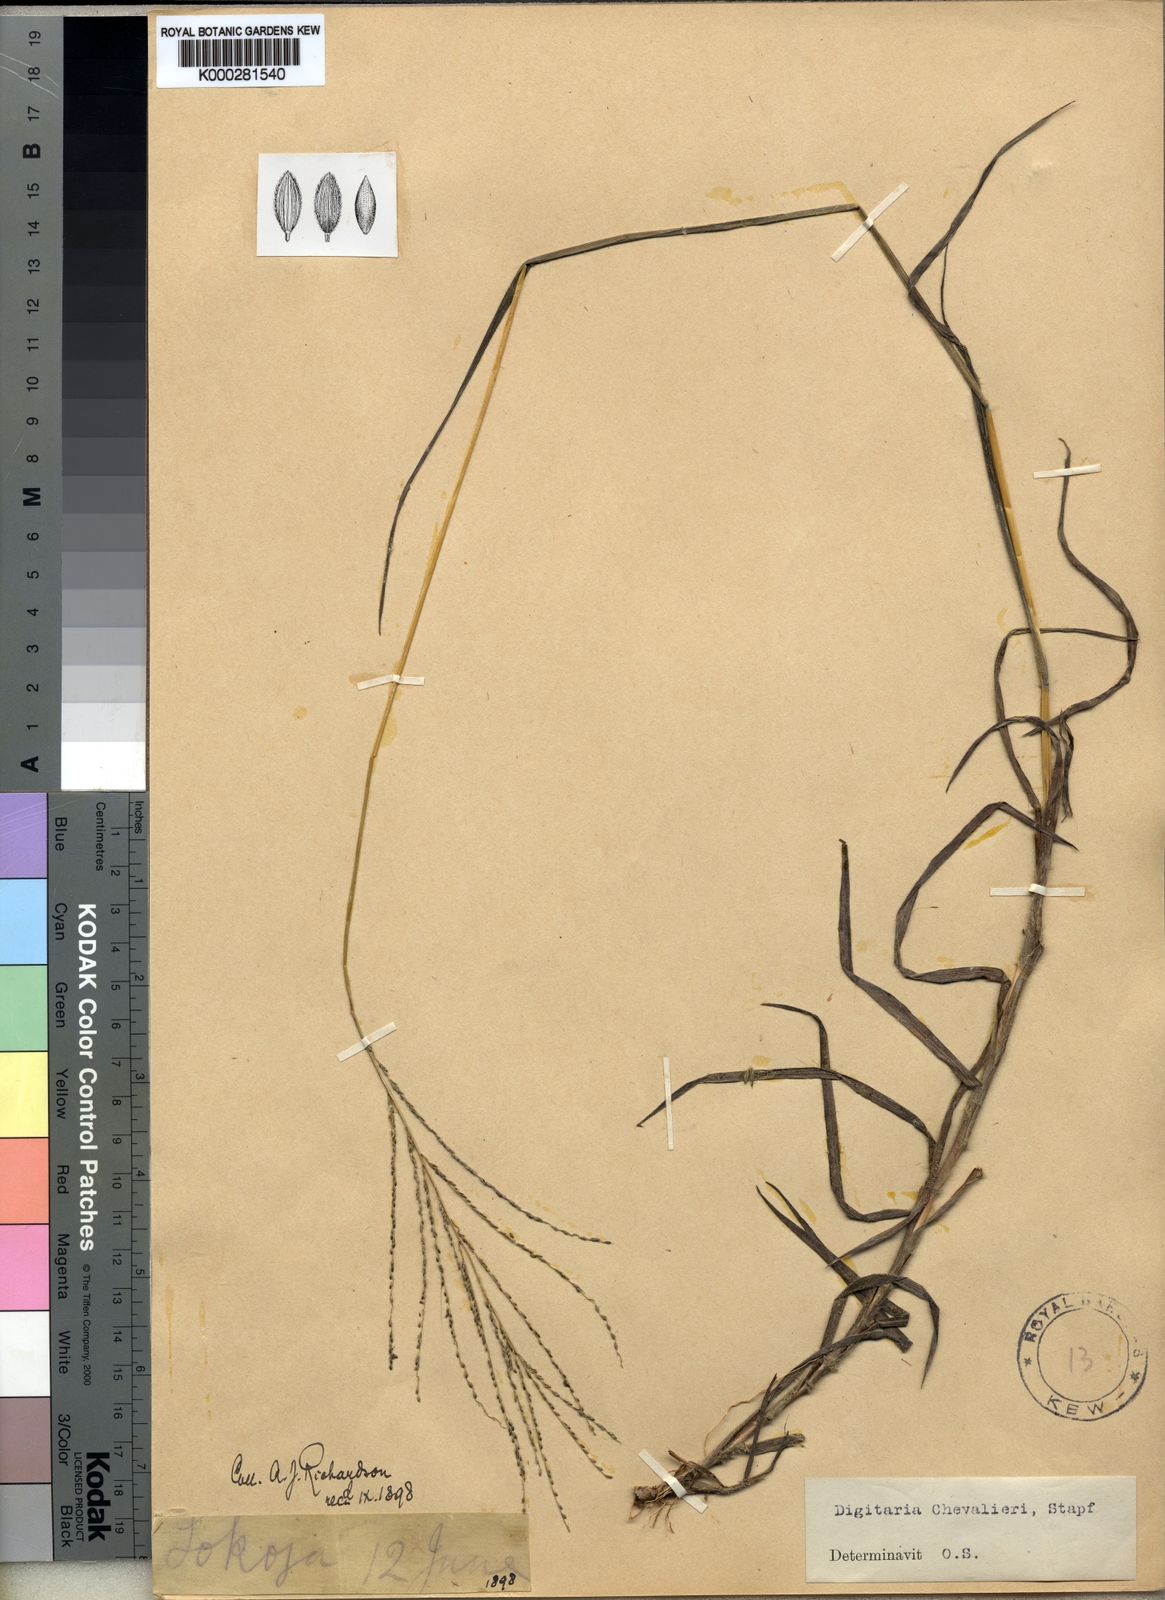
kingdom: Plantae
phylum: Tracheophyta
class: Liliopsida
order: Poales
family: Poaceae
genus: Digitaria
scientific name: Digitaria leptorhachis
